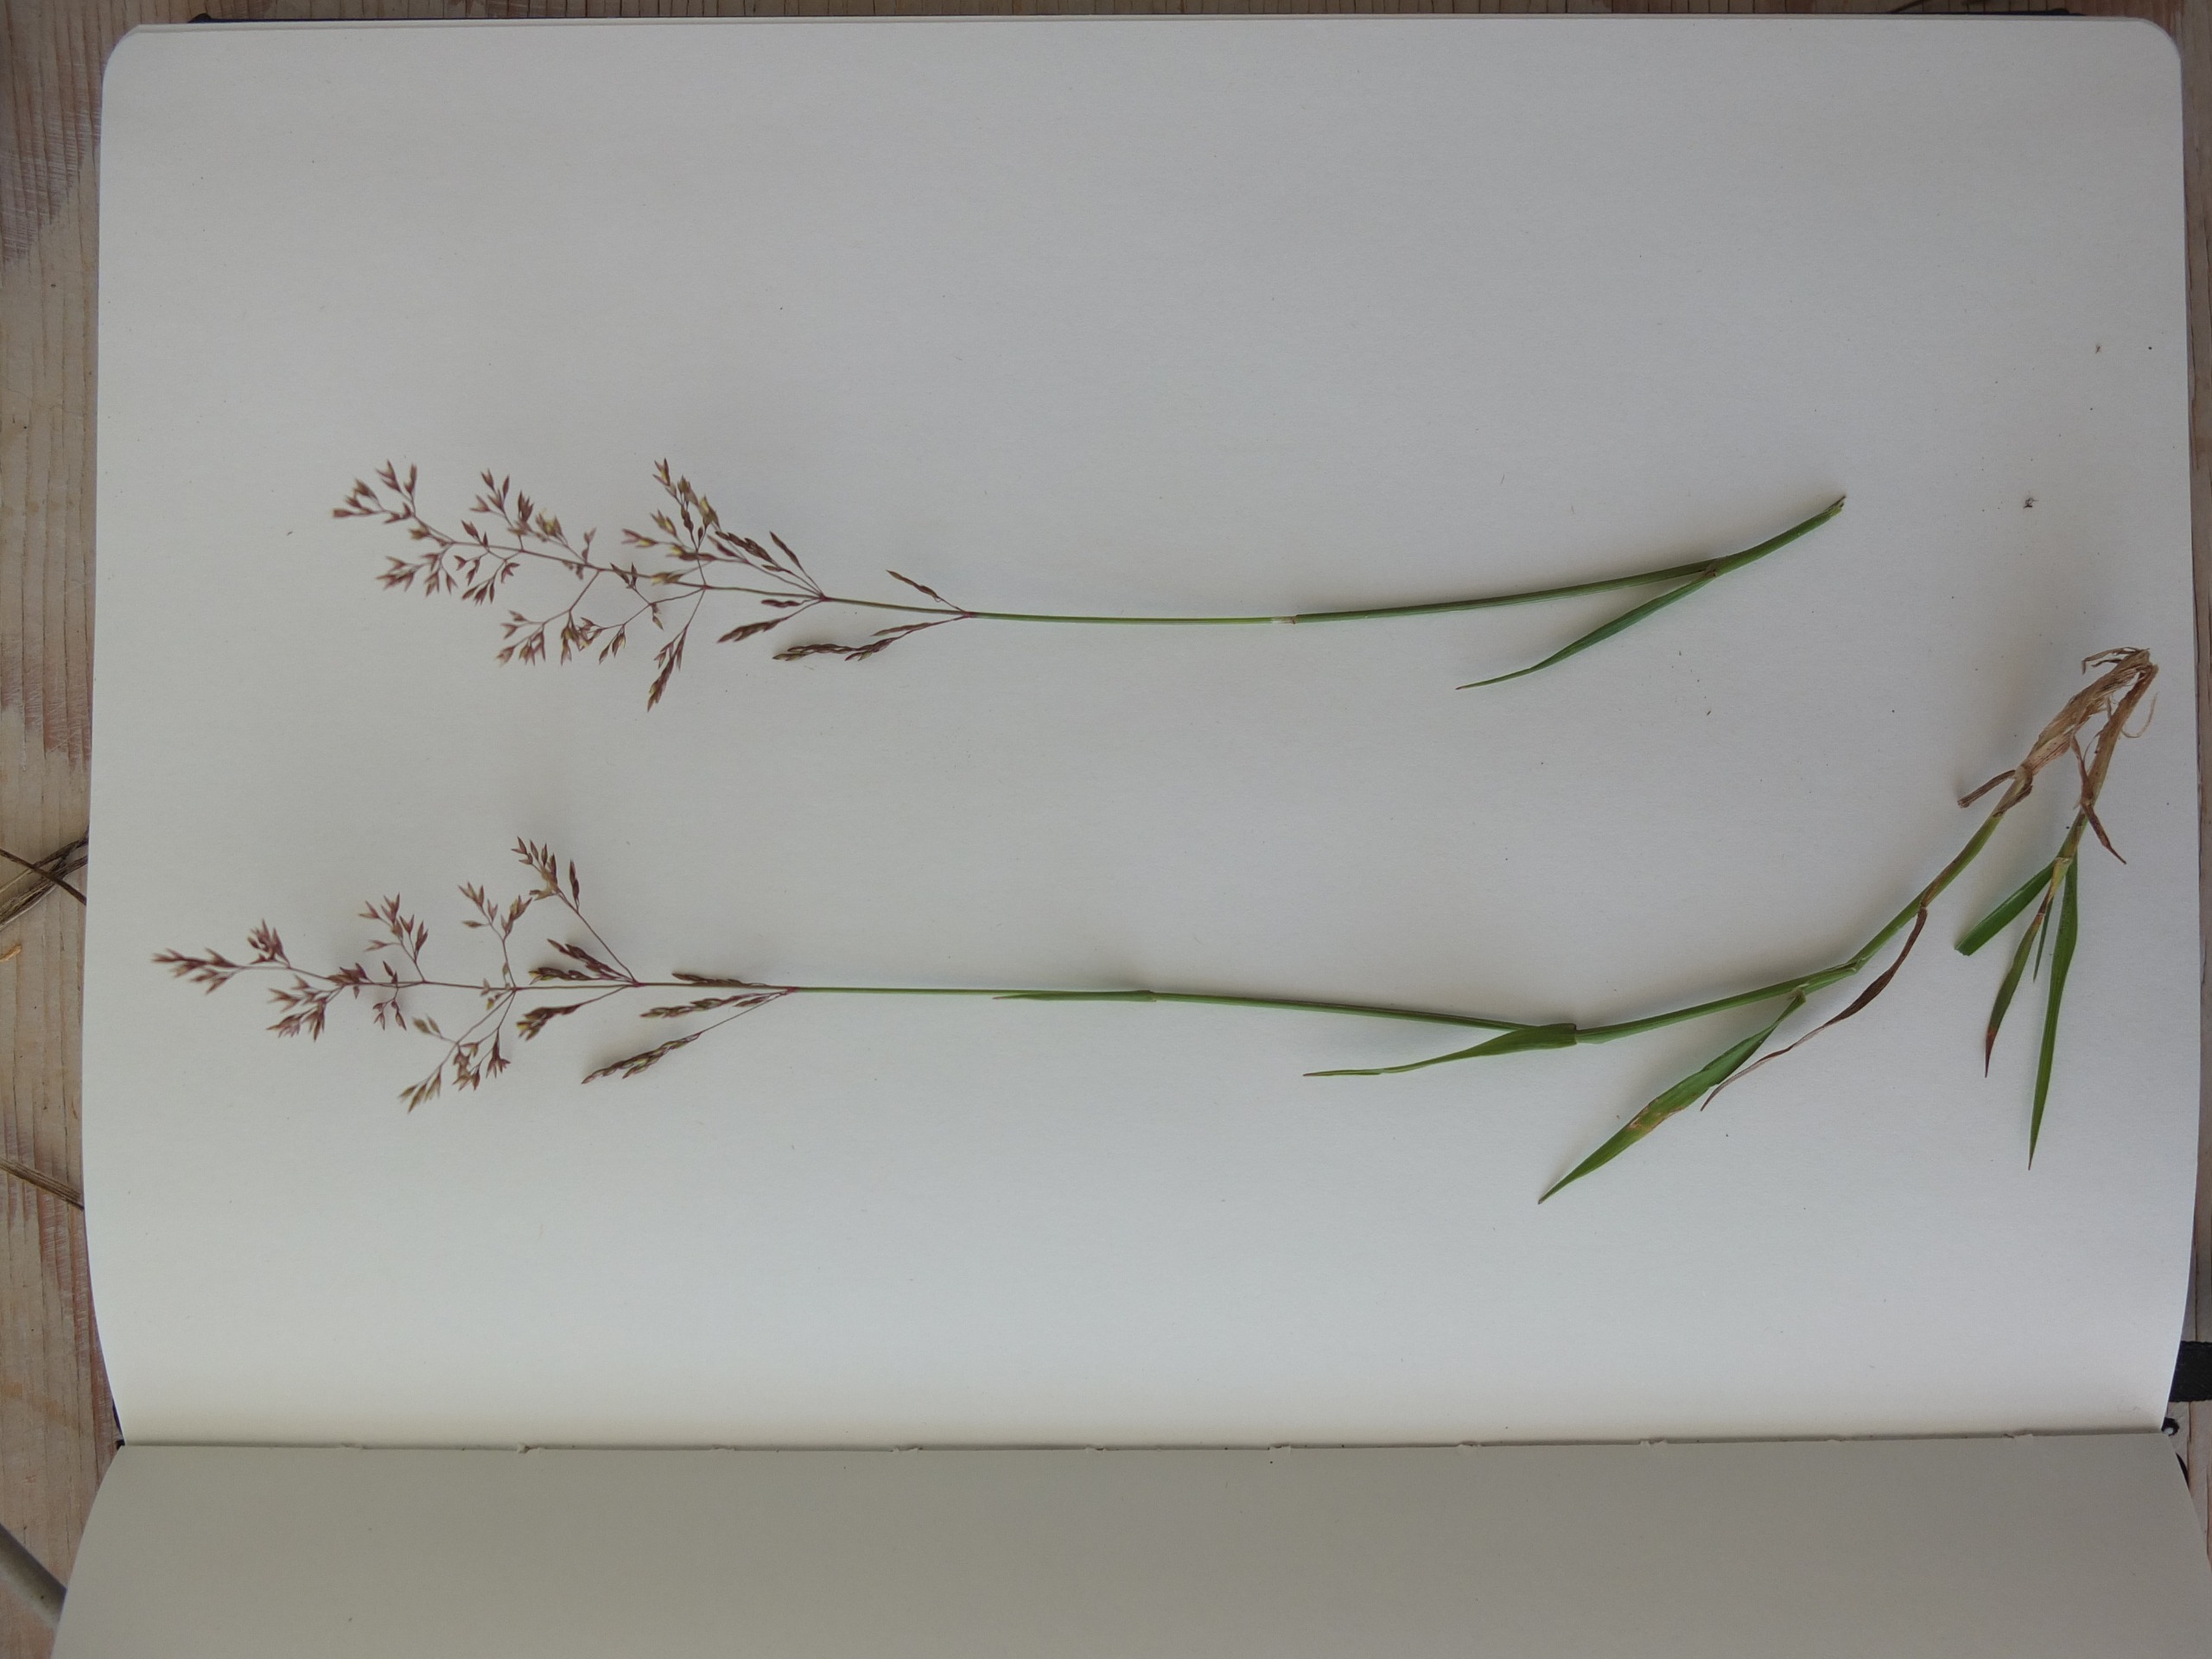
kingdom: Plantae
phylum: Tracheophyta
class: Liliopsida
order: Poales
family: Poaceae
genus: Agrostis
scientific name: Agrostis capillaris
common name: Almindelig hvene
